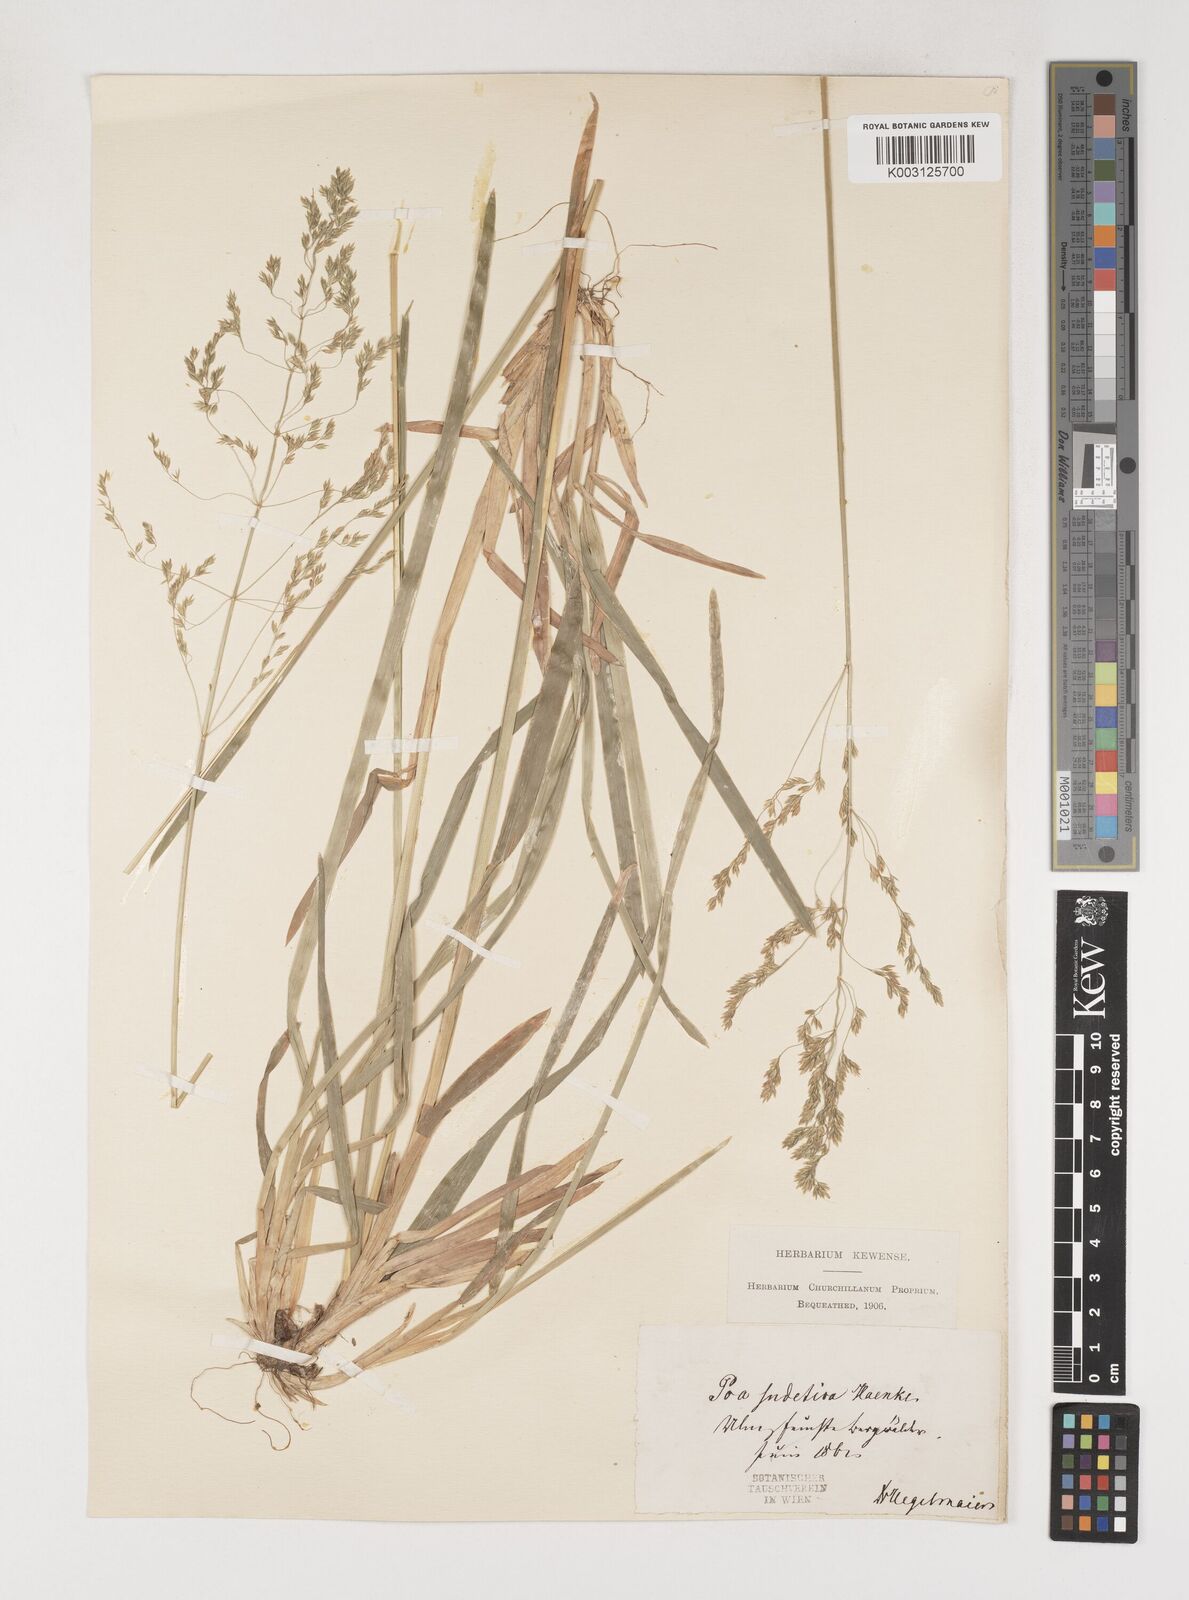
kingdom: Plantae
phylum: Tracheophyta
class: Liliopsida
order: Poales
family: Poaceae
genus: Poa
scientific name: Poa chaixii
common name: Broad-leaved meadow-grass
